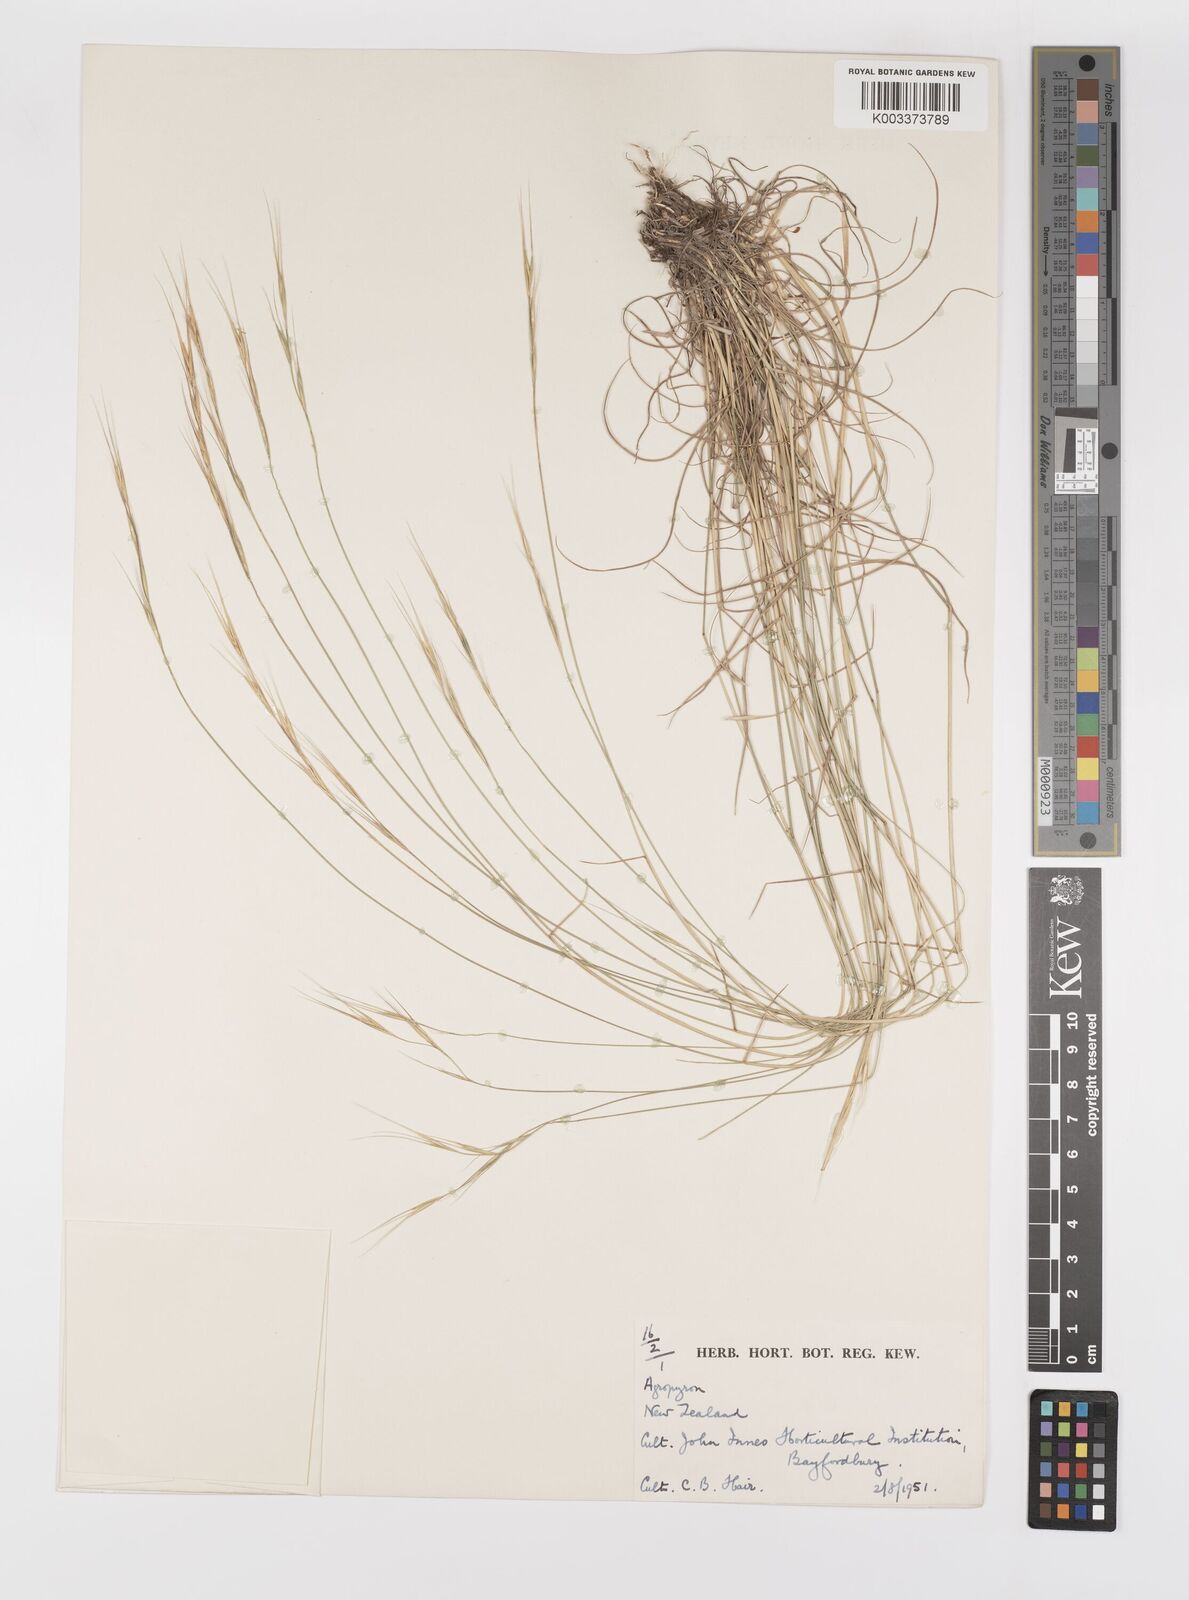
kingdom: Plantae
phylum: Tracheophyta
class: Liliopsida
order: Poales
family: Poaceae
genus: Elymus
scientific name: Elymus
